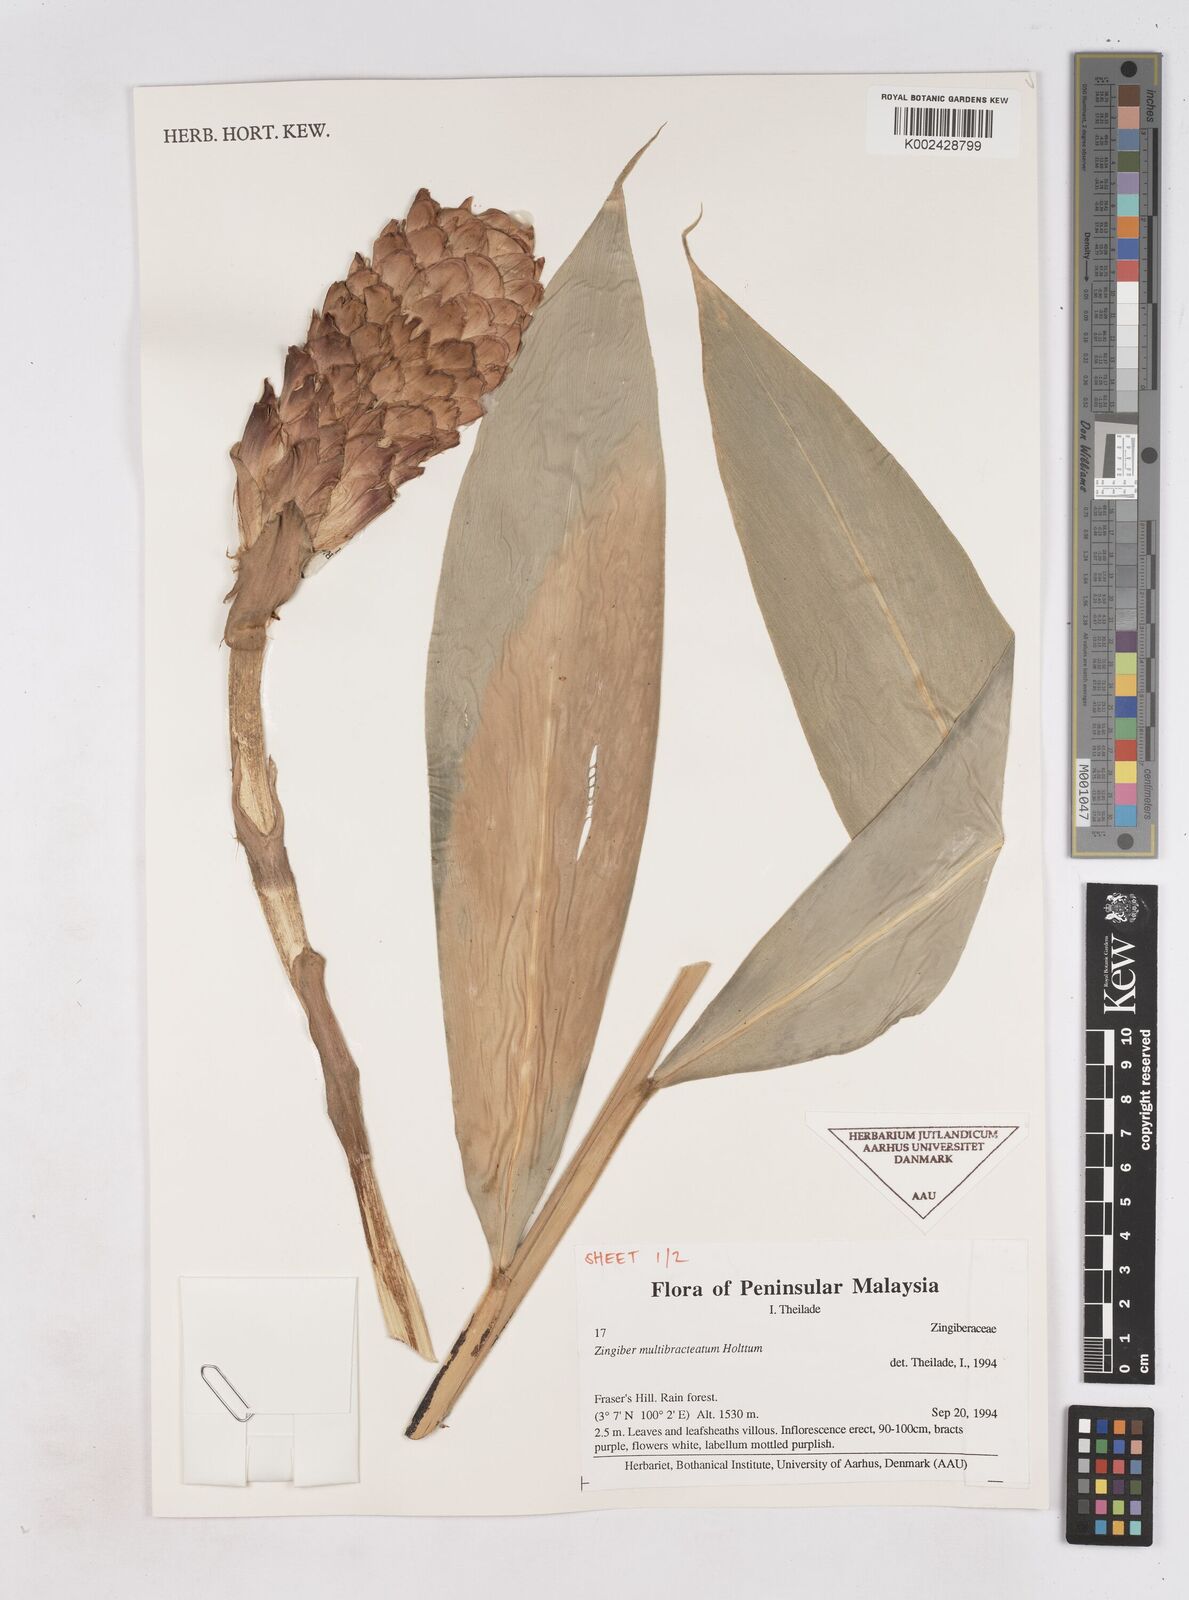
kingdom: Plantae
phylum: Tracheophyta
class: Liliopsida
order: Zingiberales
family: Zingiberaceae
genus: Zingiber
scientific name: Zingiber multibracteatum
